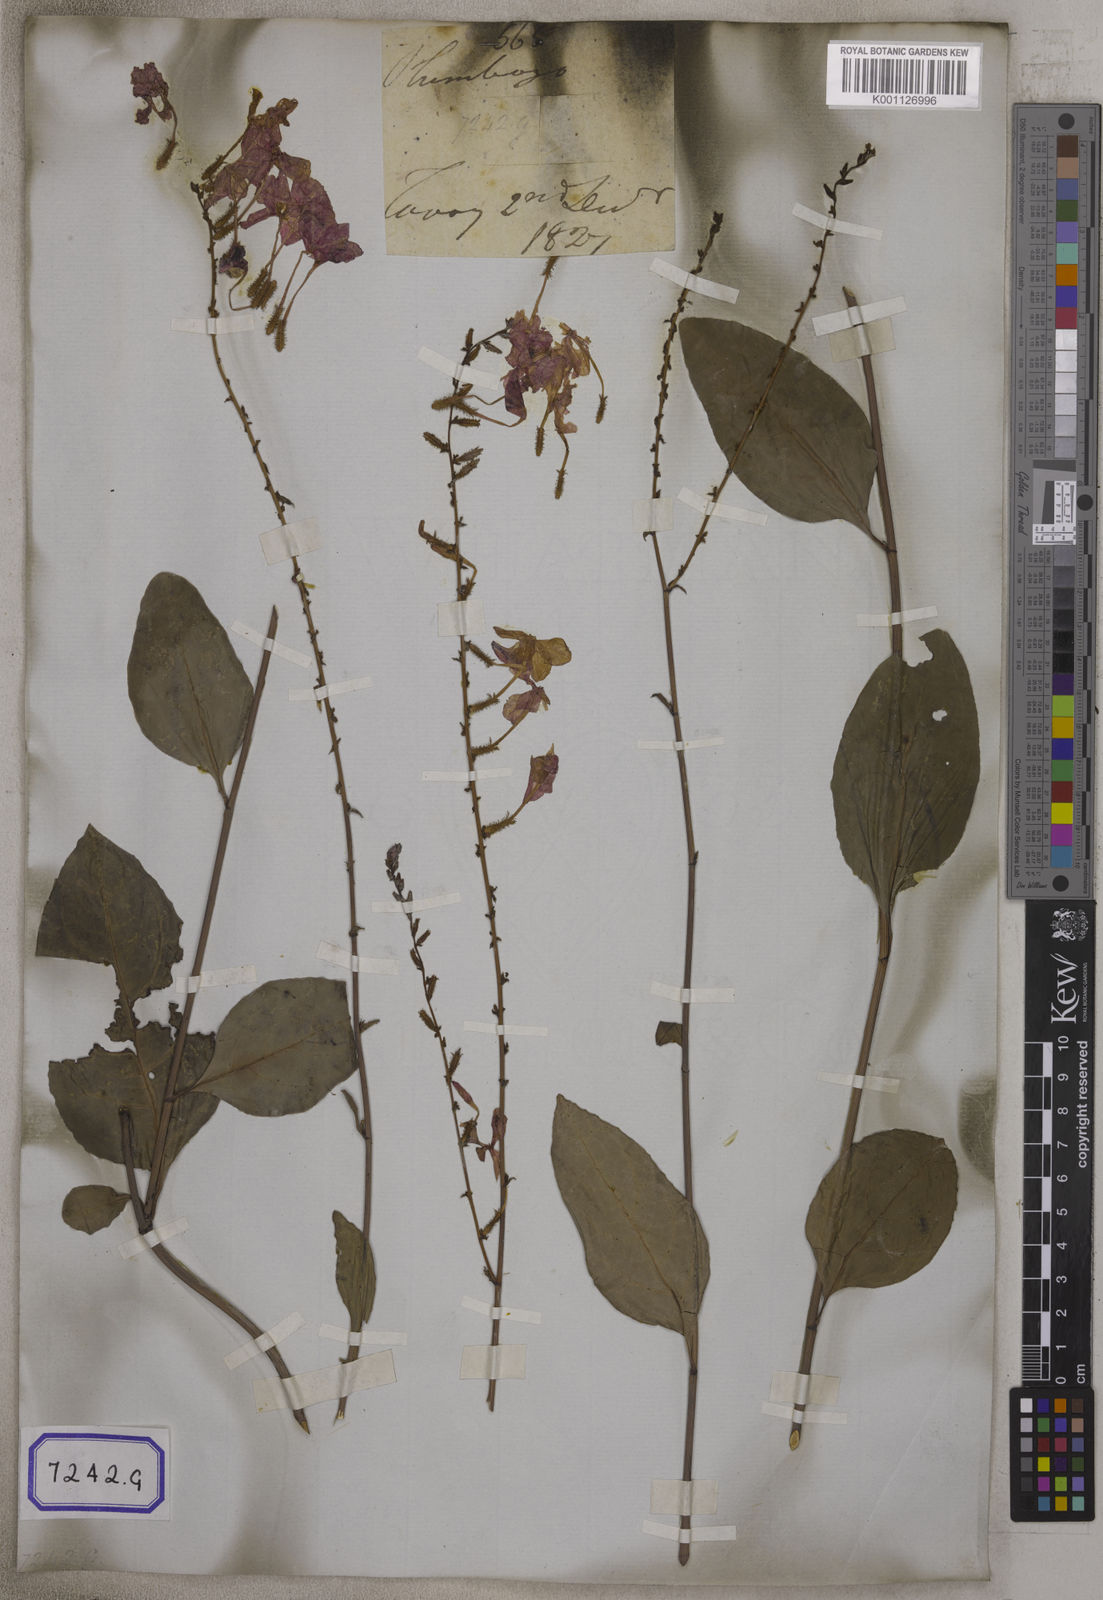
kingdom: Plantae
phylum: Tracheophyta
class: Magnoliopsida
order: Caryophyllales
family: Plumbaginaceae
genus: Plumbago
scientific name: Plumbago indica
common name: Indian leadwort
